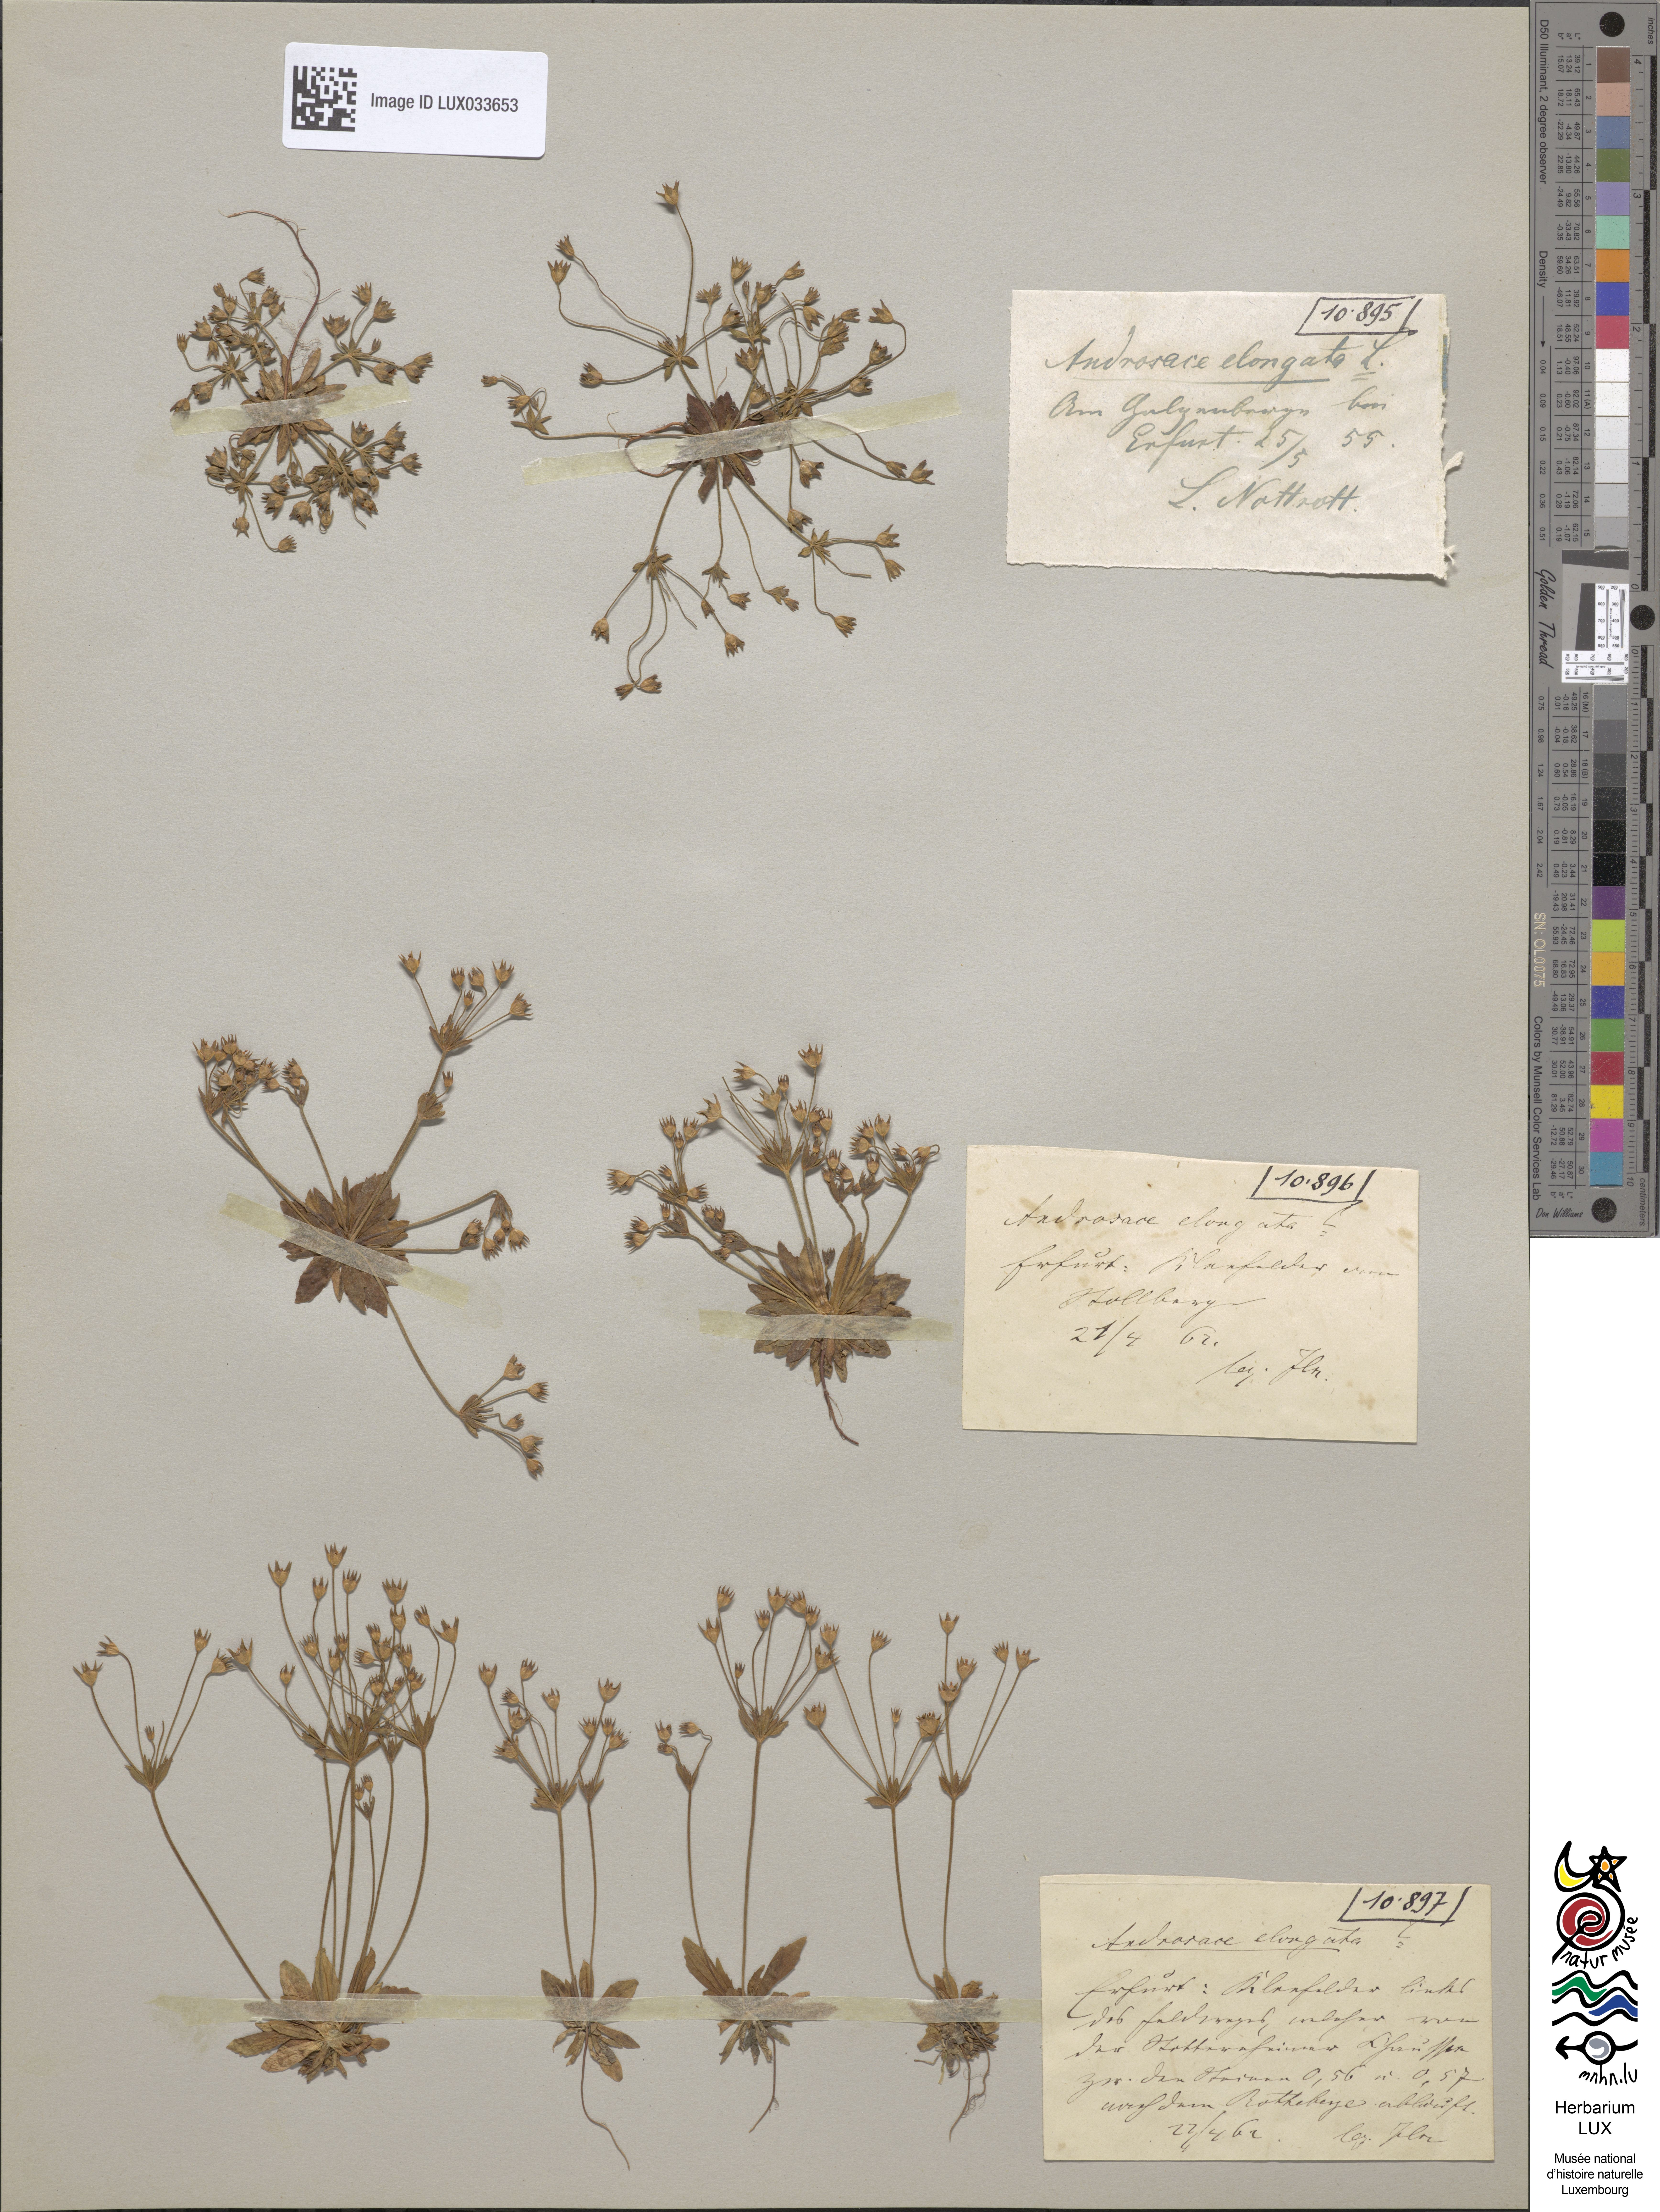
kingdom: Plantae
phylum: Tracheophyta
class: Magnoliopsida
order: Ericales
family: Primulaceae
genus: Androsace
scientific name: Androsace elongata
